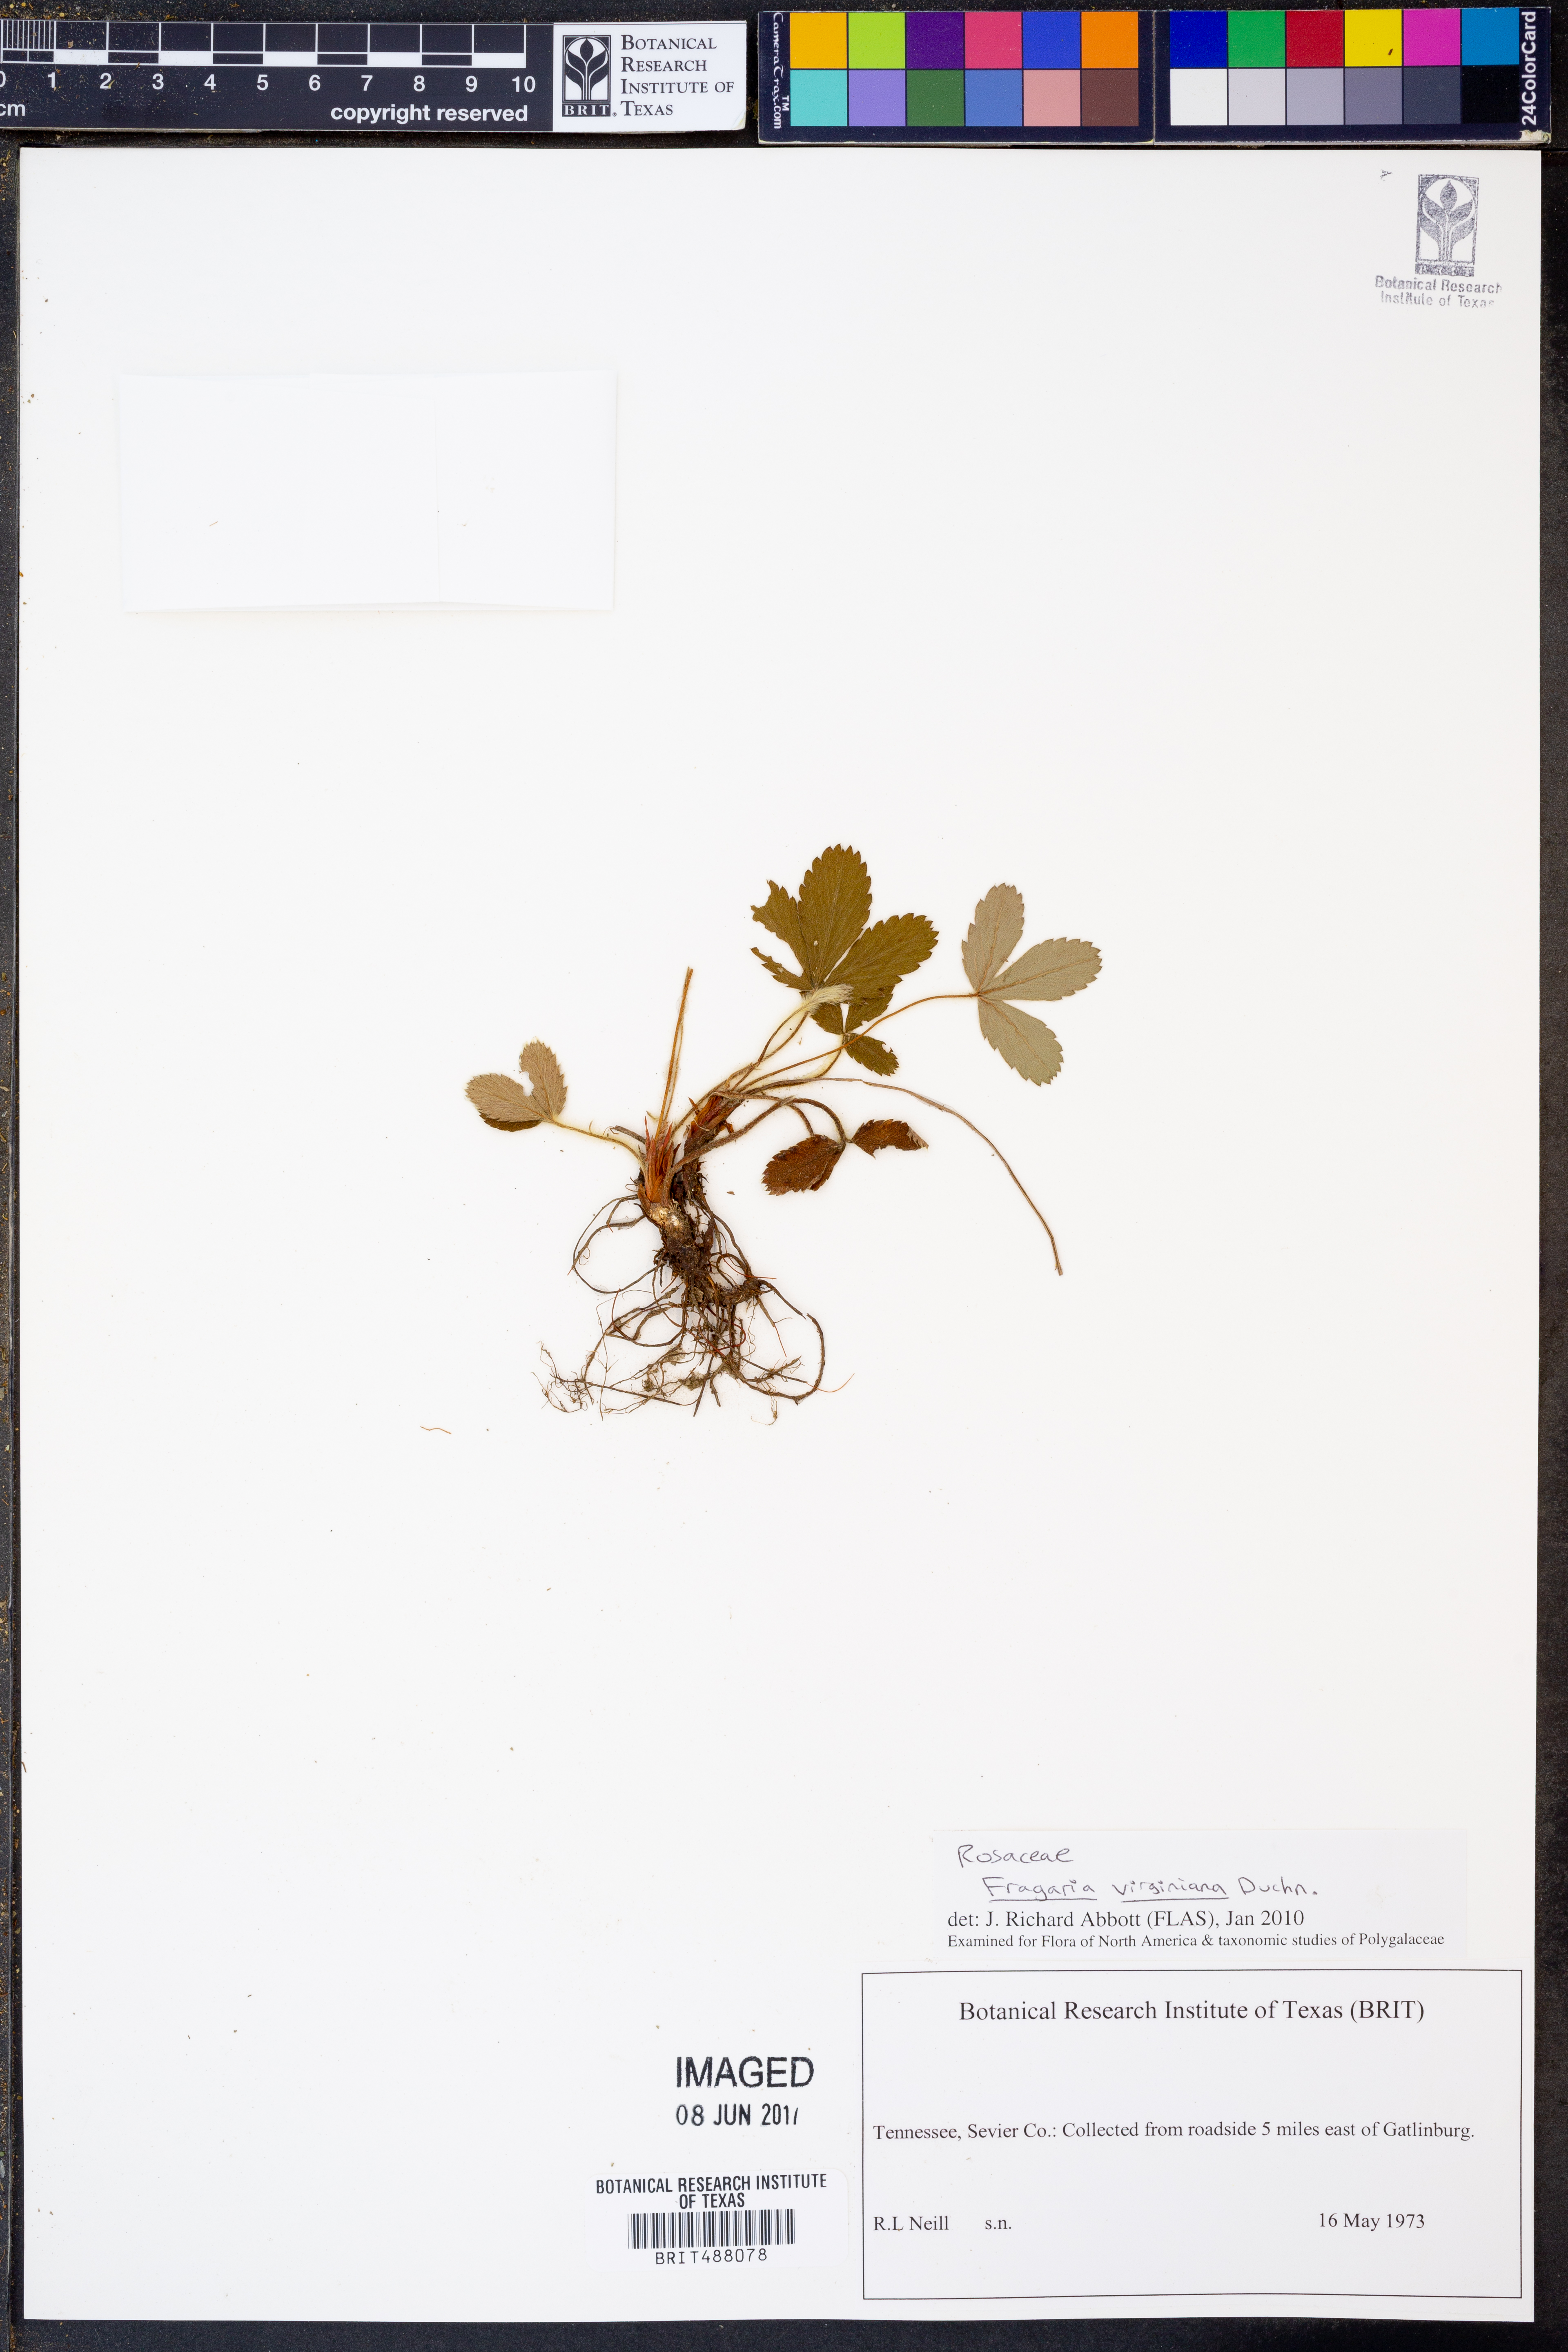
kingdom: Plantae
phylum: Tracheophyta
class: Magnoliopsida
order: Rosales
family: Rosaceae
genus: Fragaria
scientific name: Fragaria virginiana
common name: Thickleaved wild strawberry
